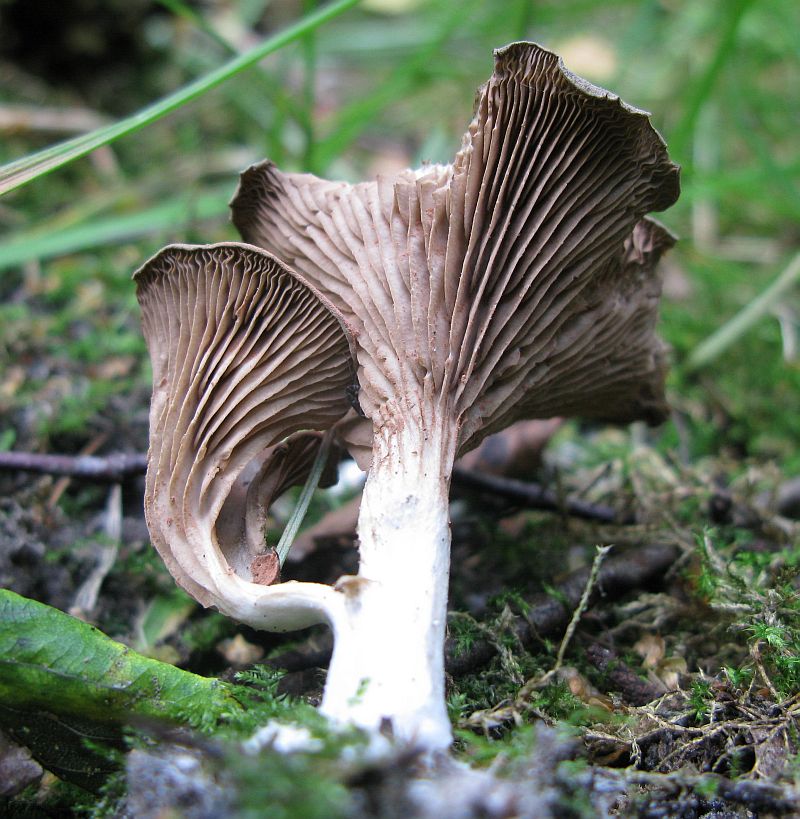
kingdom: Fungi
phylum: Basidiomycota
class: Agaricomycetes
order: Agaricales
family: Entolomataceae
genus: Entoloma
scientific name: Entoloma undatum
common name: bæltet rødblad
